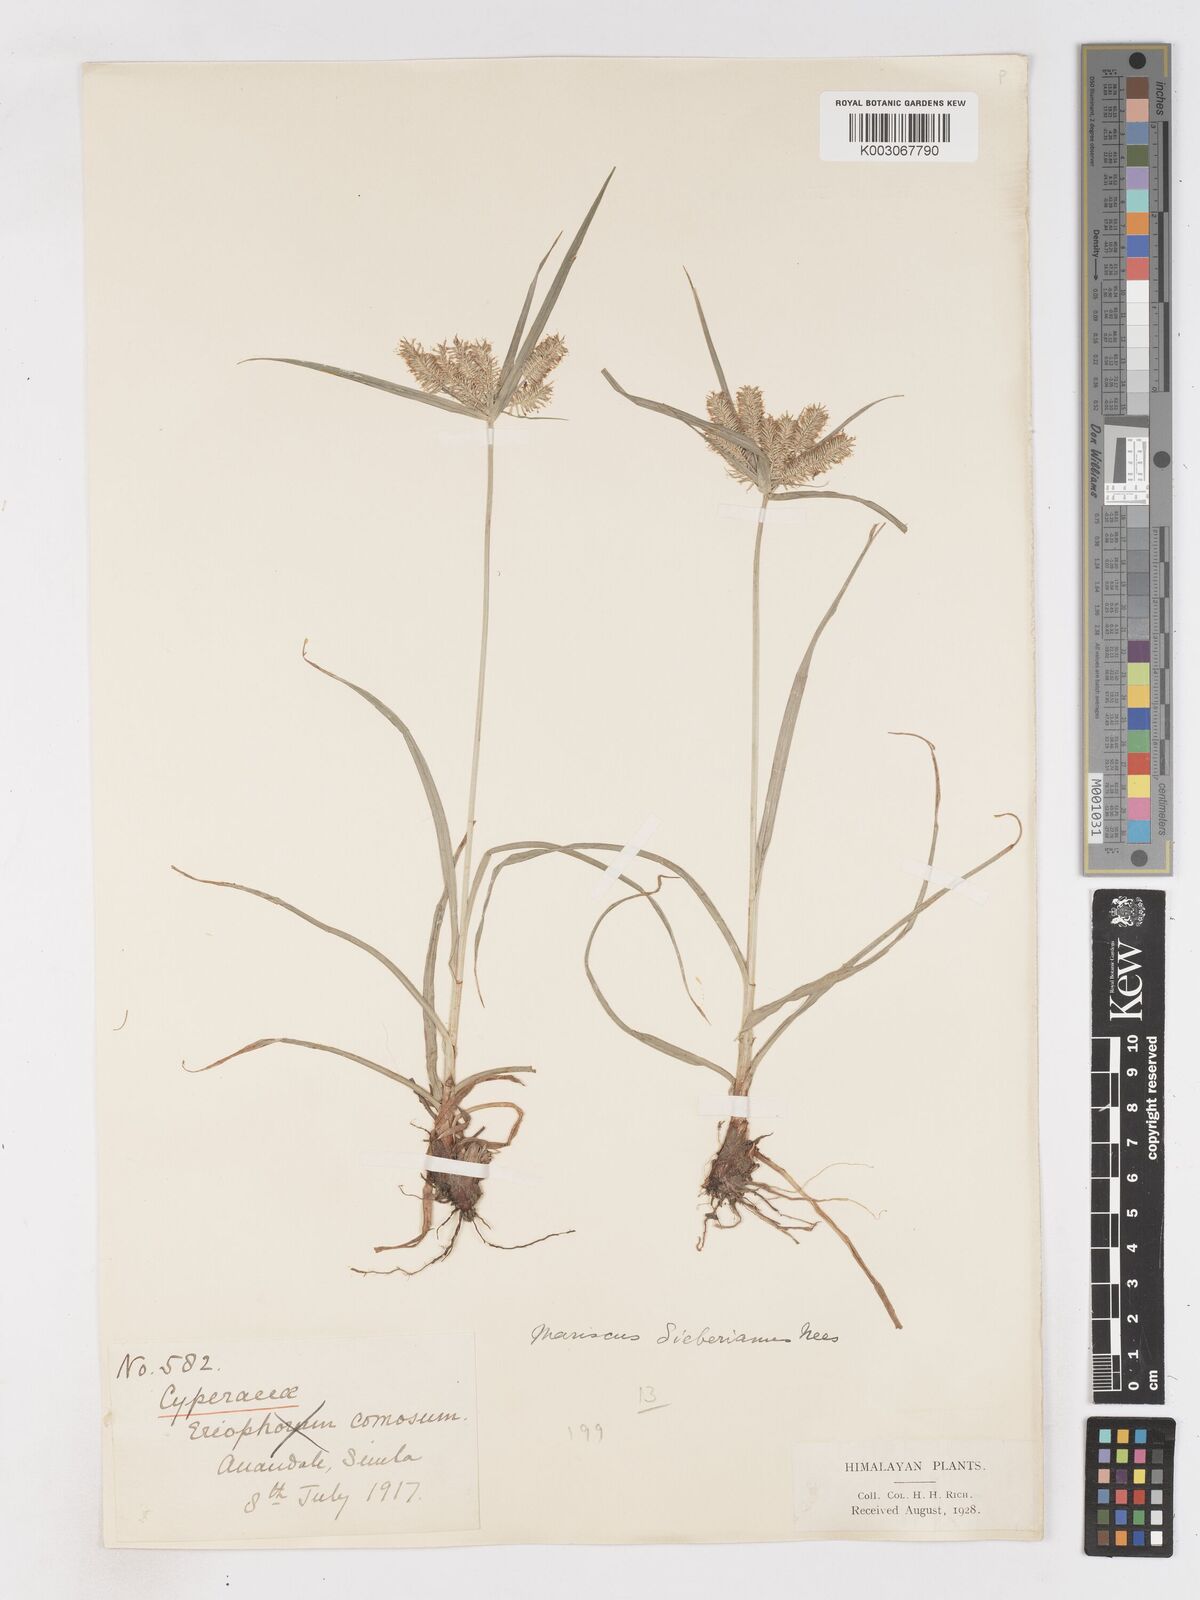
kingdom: Plantae
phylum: Tracheophyta
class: Liliopsida
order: Poales
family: Cyperaceae
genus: Cyperus
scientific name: Cyperus cyperoides
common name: Pacific island flat sedge
